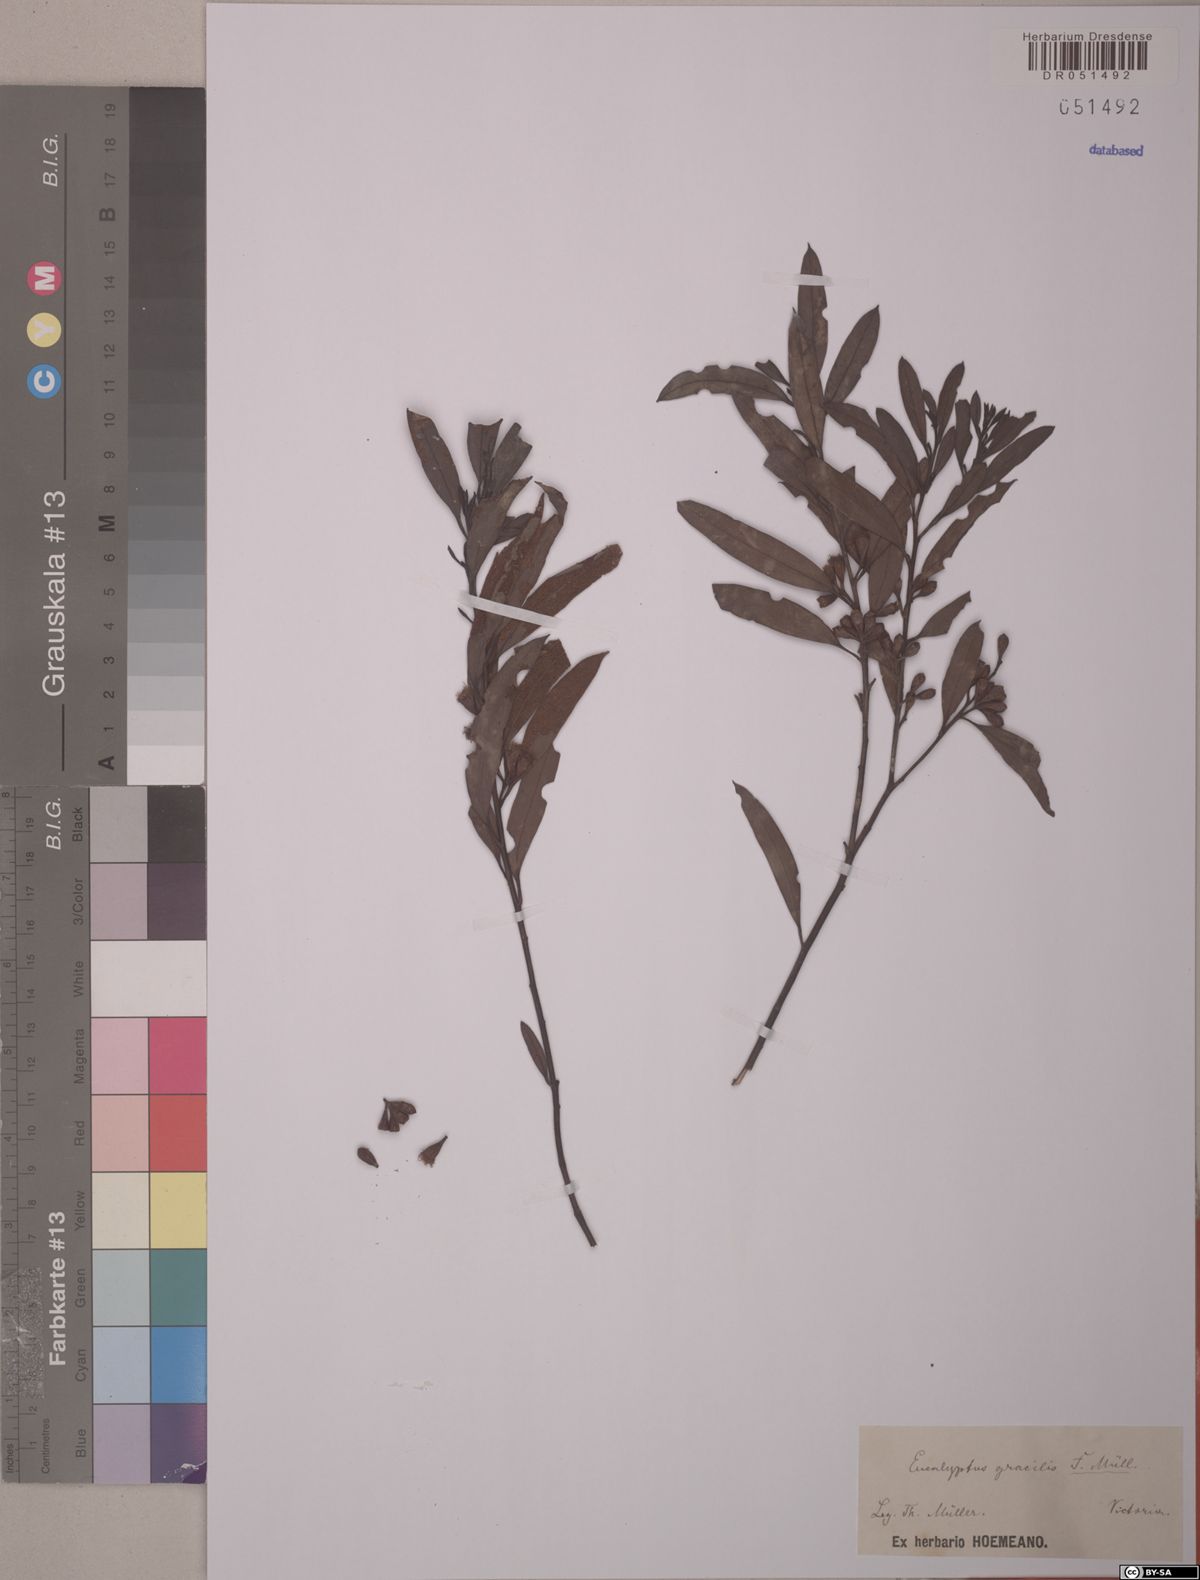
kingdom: Plantae
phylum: Tracheophyta
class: Magnoliopsida
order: Myrtales
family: Myrtaceae
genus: Eucalyptus
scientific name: Eucalyptus gracilis
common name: White mallee
